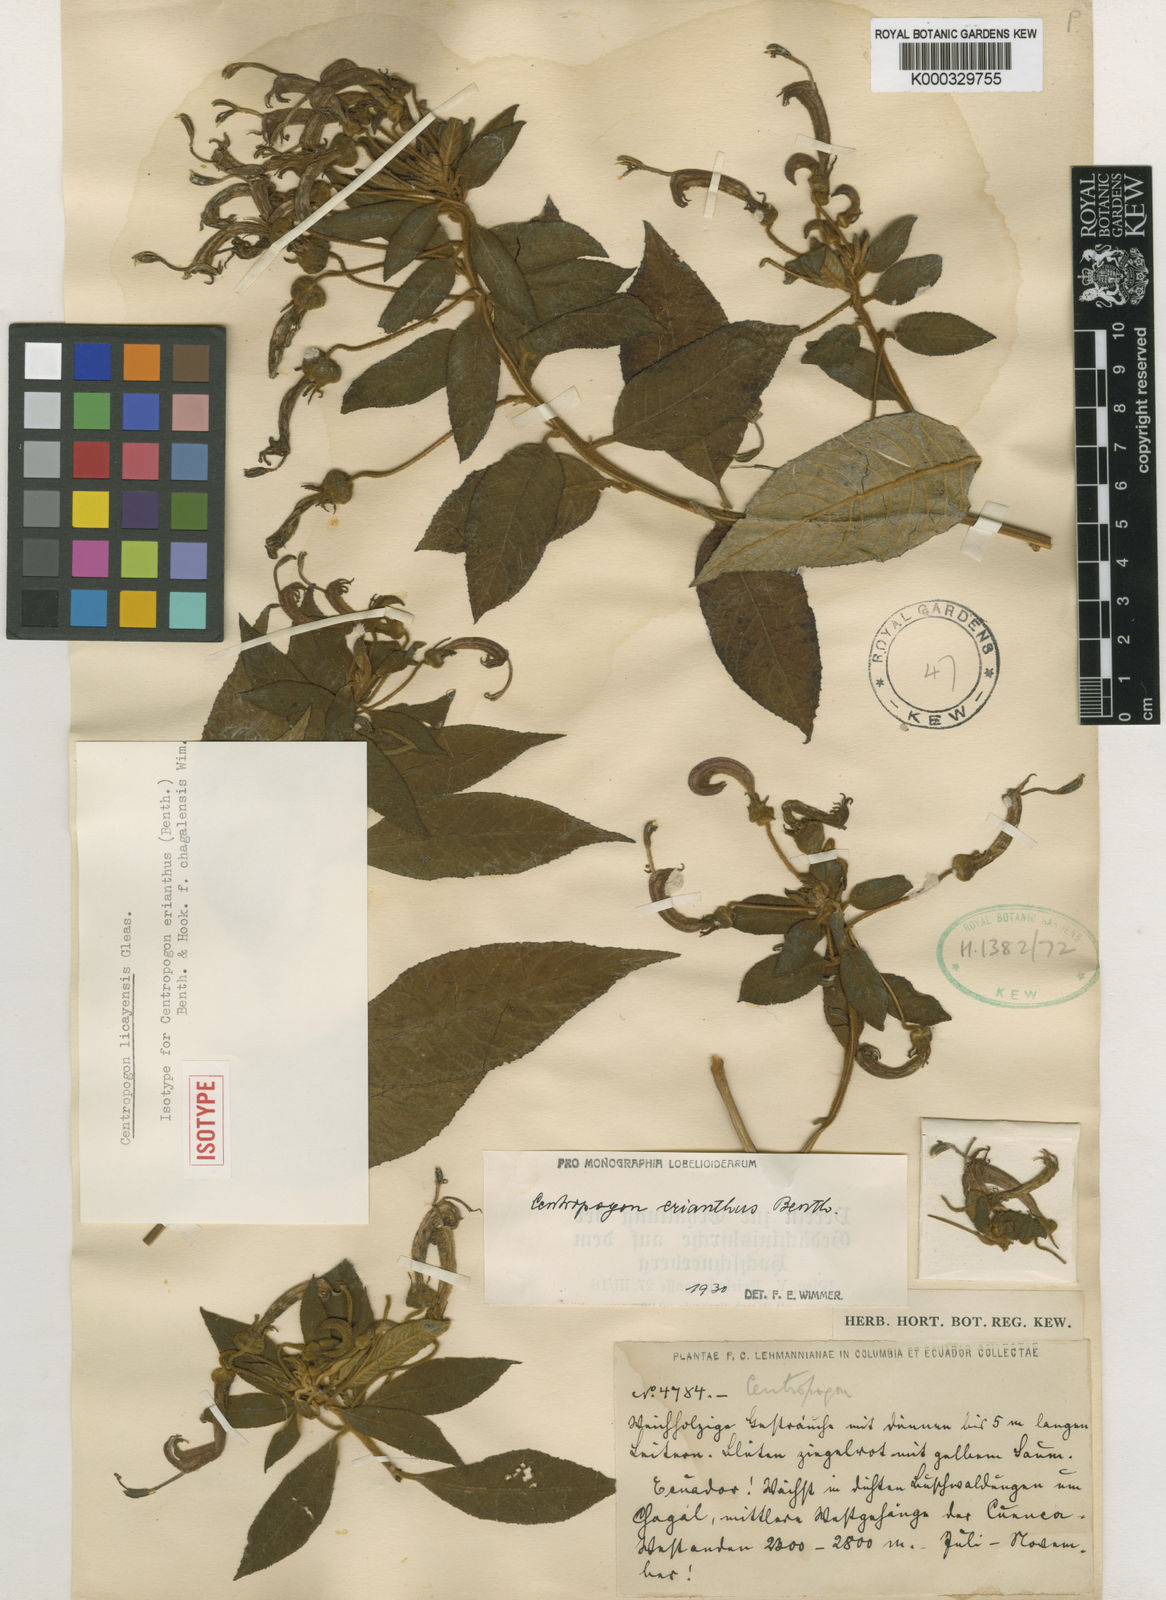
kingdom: Plantae
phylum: Tracheophyta
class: Magnoliopsida
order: Asterales
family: Campanulaceae
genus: Centropogon
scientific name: Centropogon erianthus
